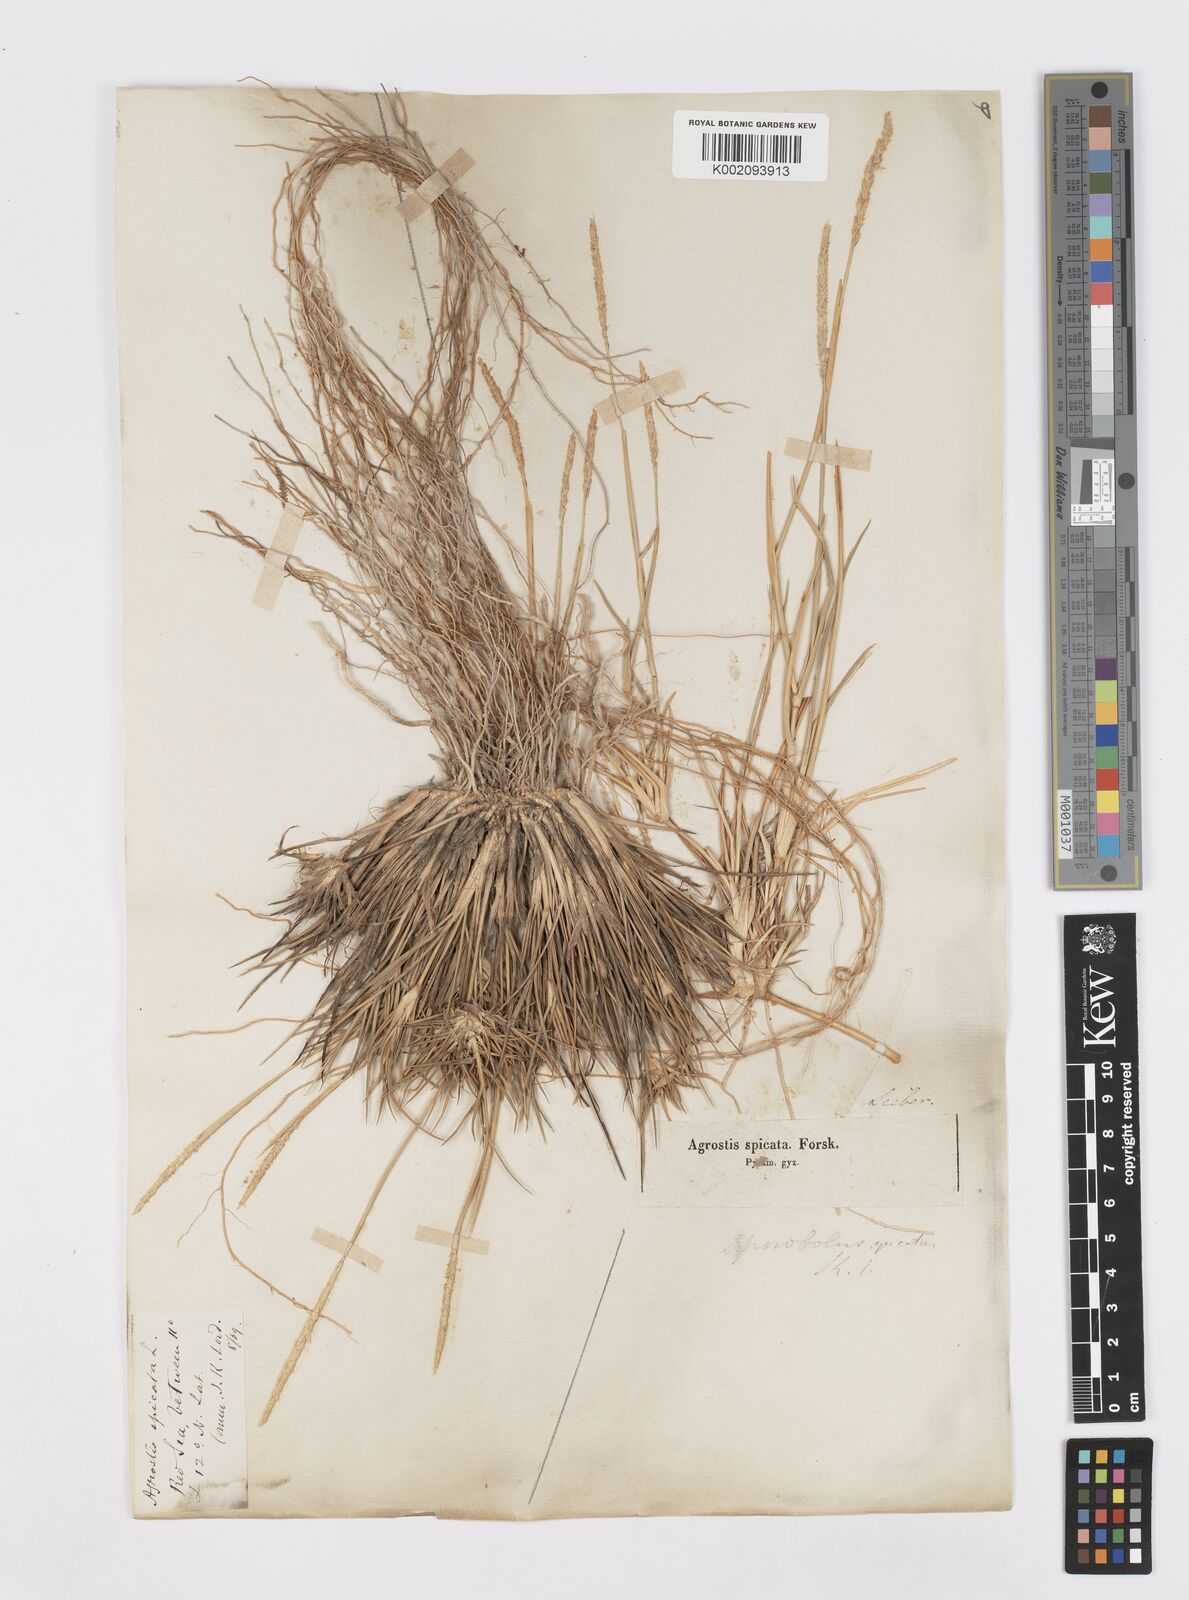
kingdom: Plantae
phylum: Tracheophyta
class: Liliopsida
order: Poales
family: Poaceae
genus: Sporobolus
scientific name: Sporobolus spicatus
